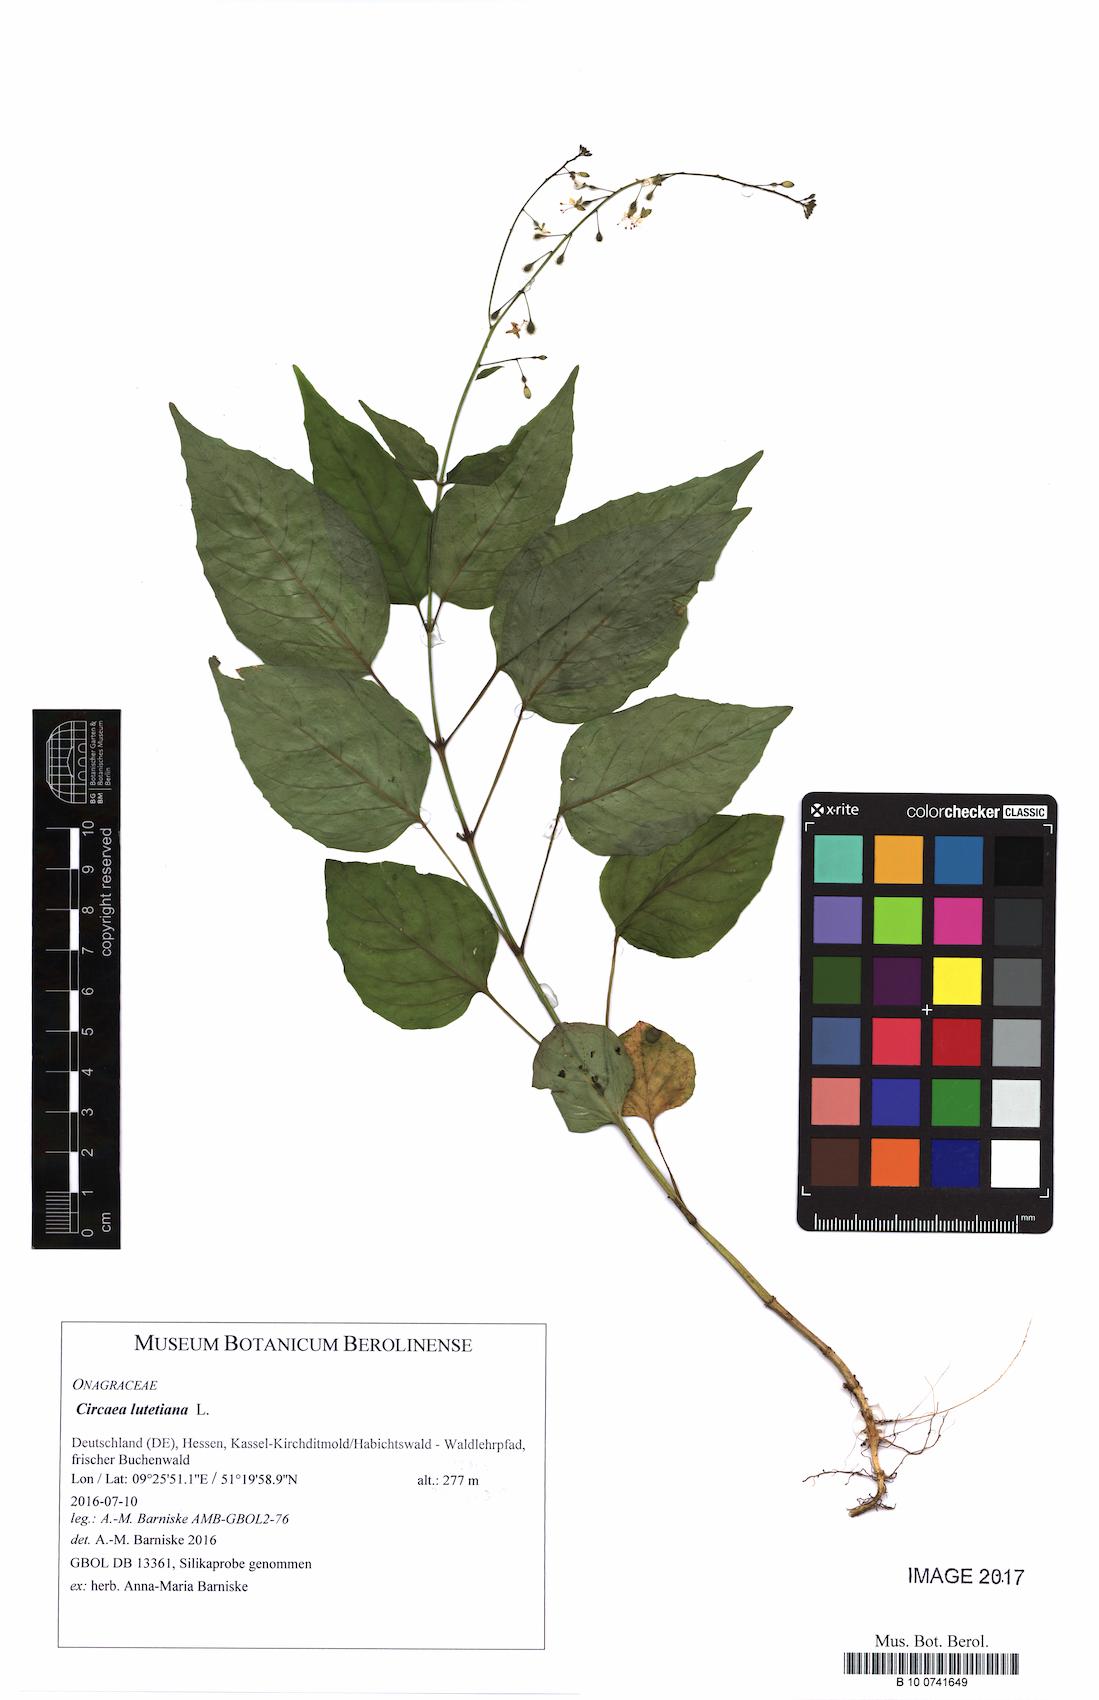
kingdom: Plantae
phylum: Tracheophyta
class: Magnoliopsida
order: Myrtales
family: Onagraceae
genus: Circaea
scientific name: Circaea lutetiana
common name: Enchanter's-nightshade
